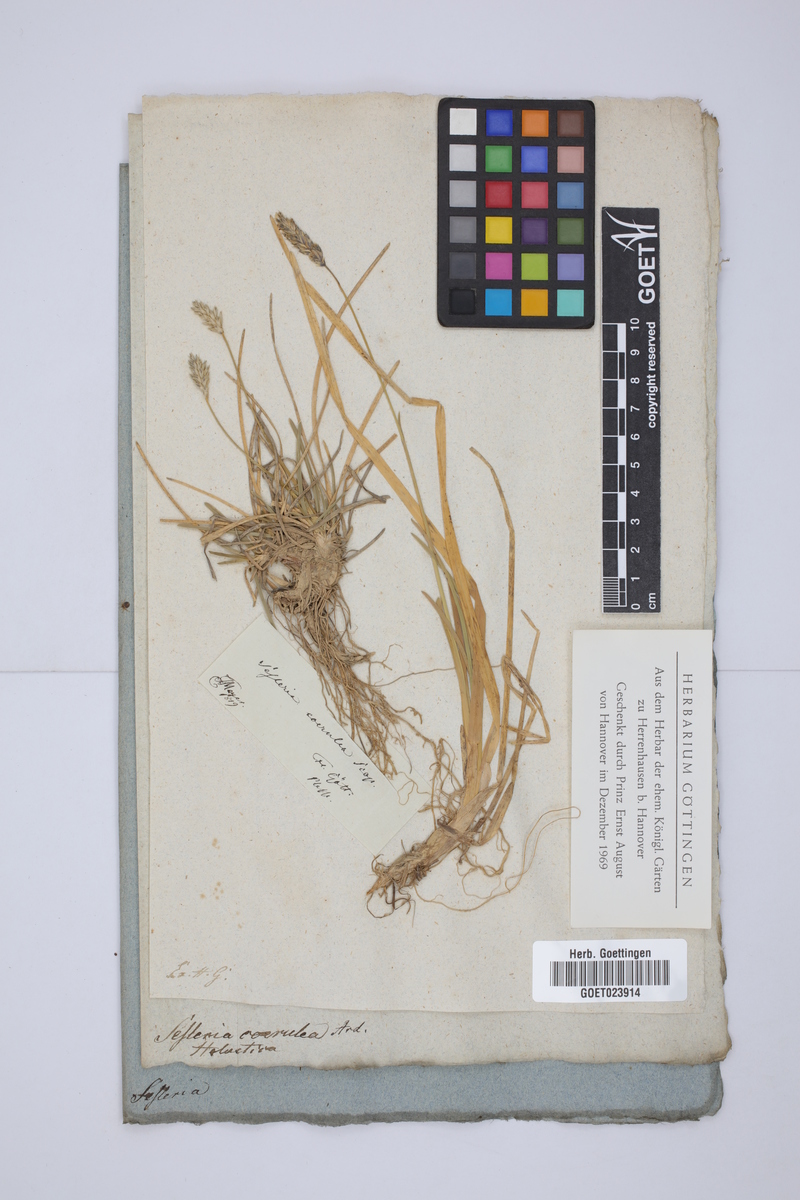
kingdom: Plantae
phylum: Tracheophyta
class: Liliopsida
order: Poales
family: Poaceae
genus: Sesleria
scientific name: Sesleria caerulea
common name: Blue moor-grass
